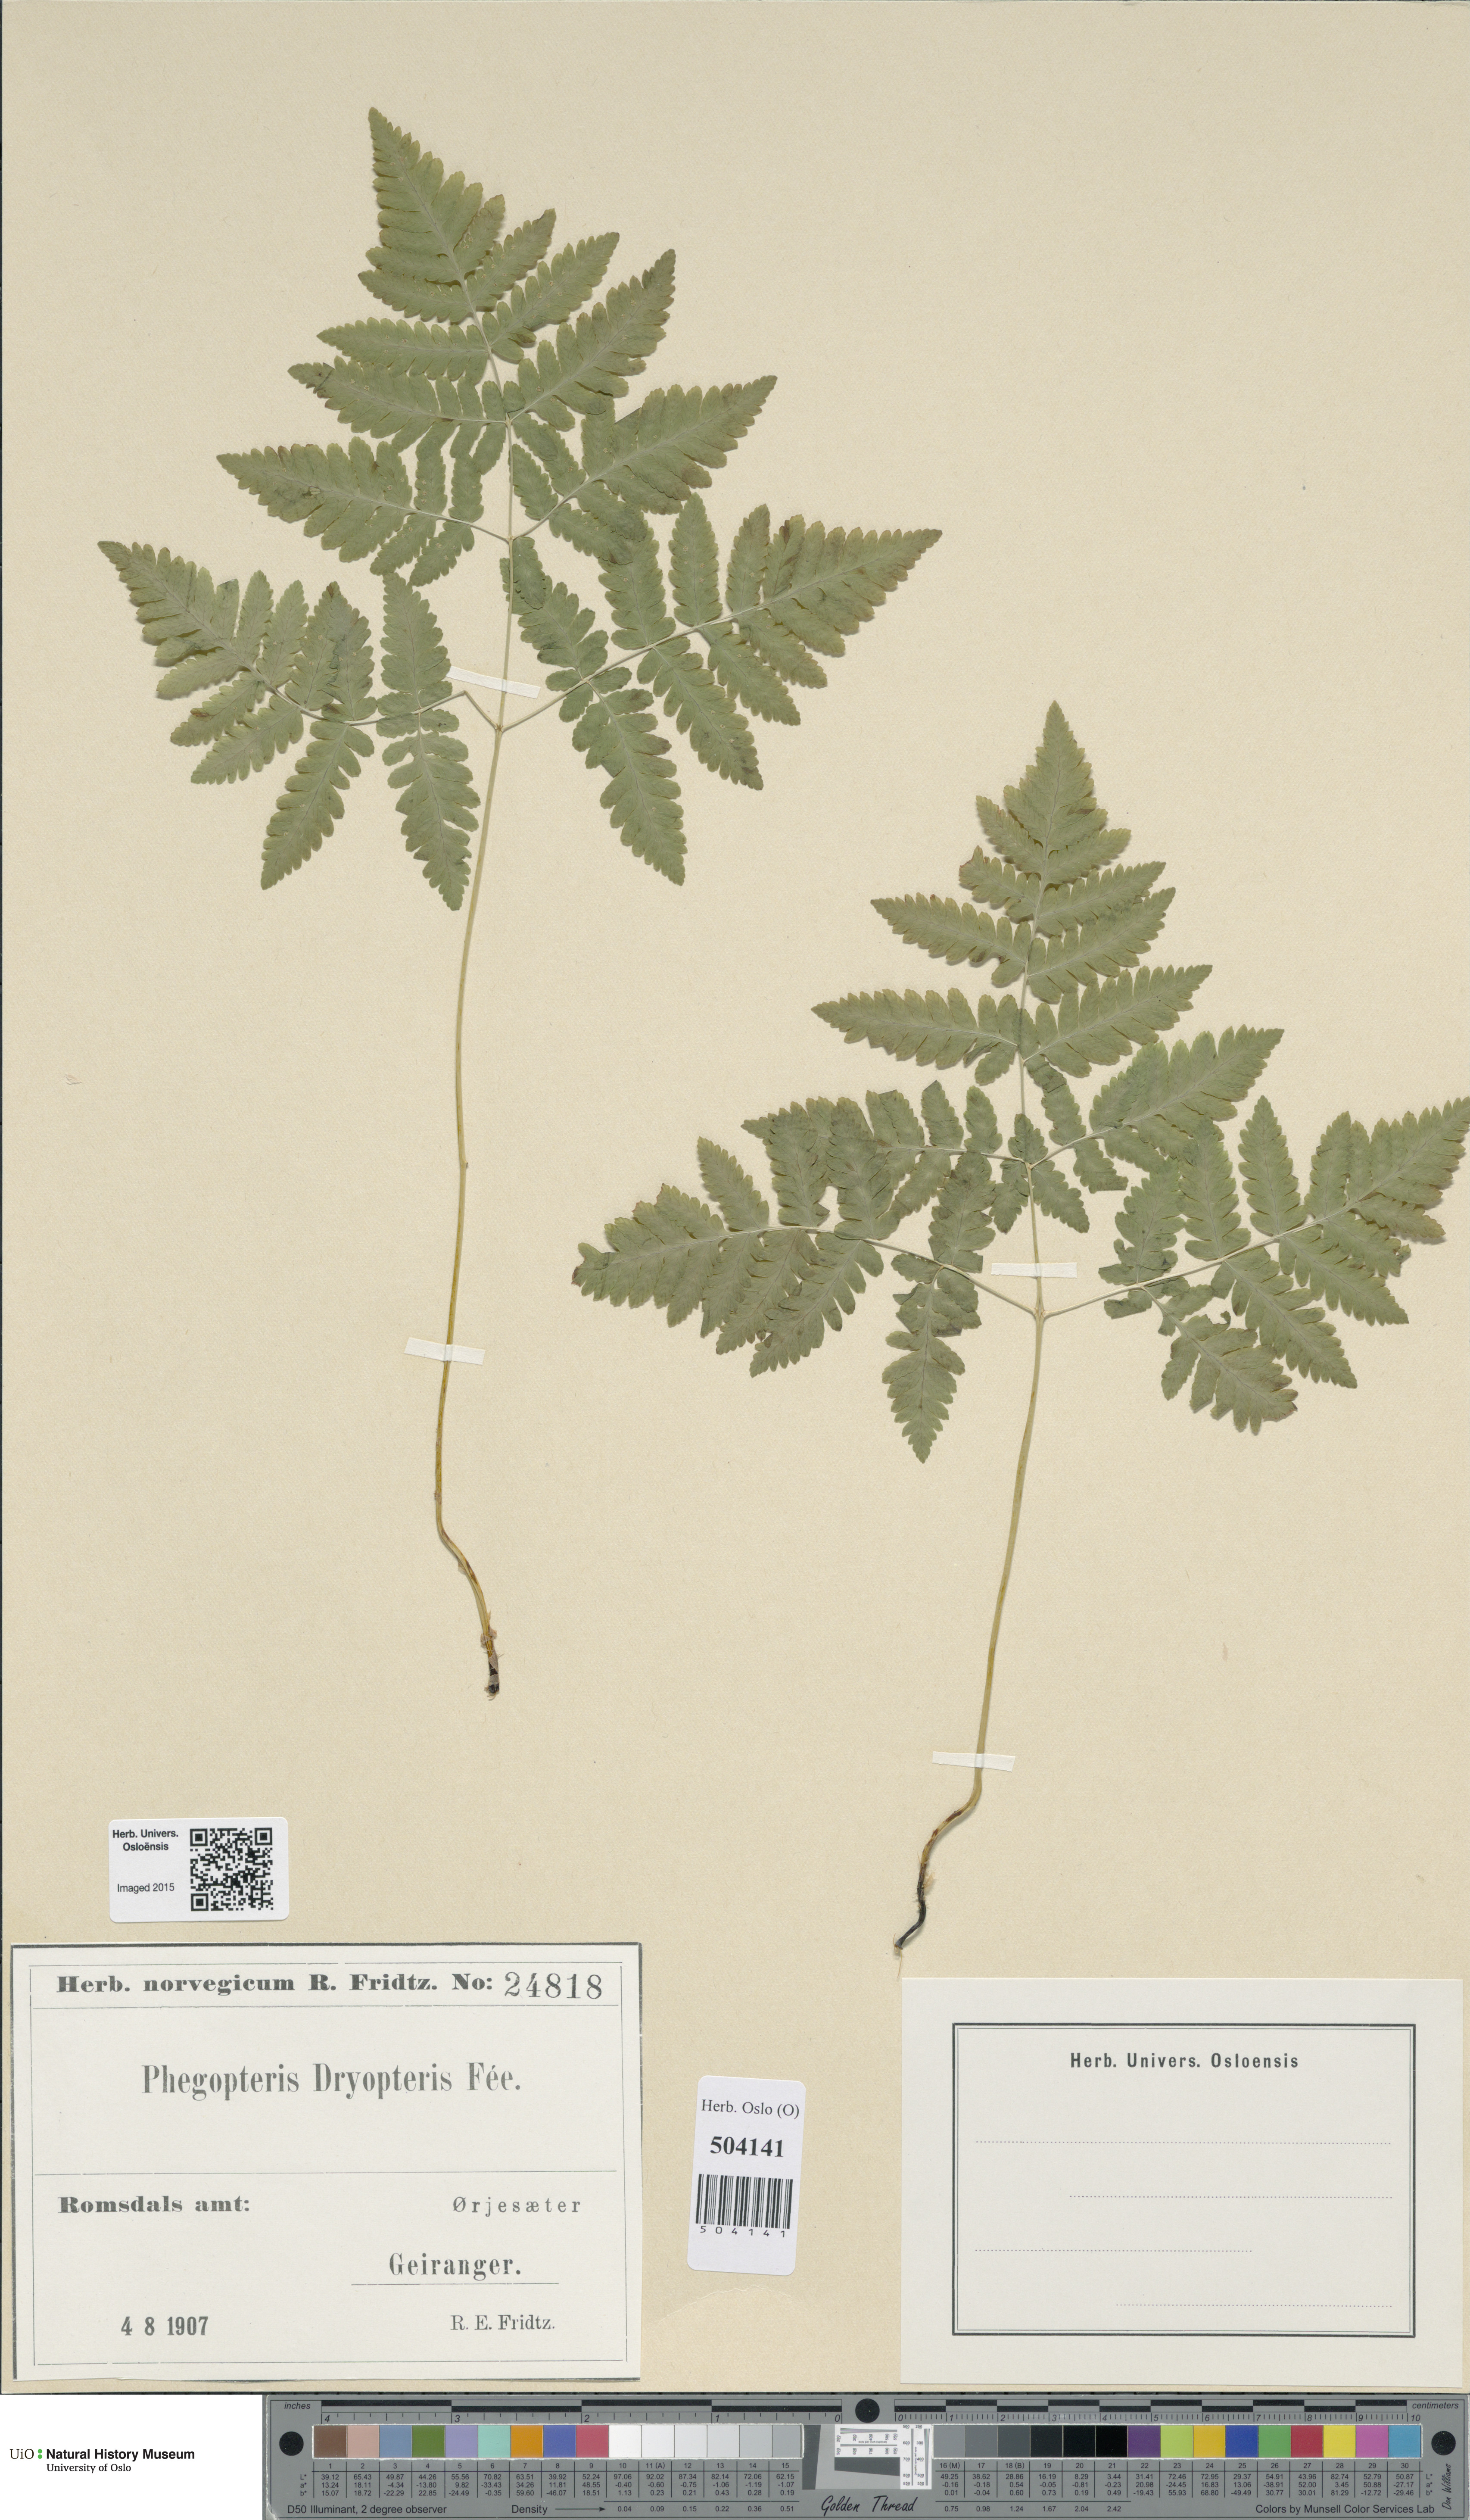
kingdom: Plantae
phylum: Tracheophyta
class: Polypodiopsida
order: Polypodiales
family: Cystopteridaceae
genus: Gymnocarpium
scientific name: Gymnocarpium dryopteris
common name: Oak fern
